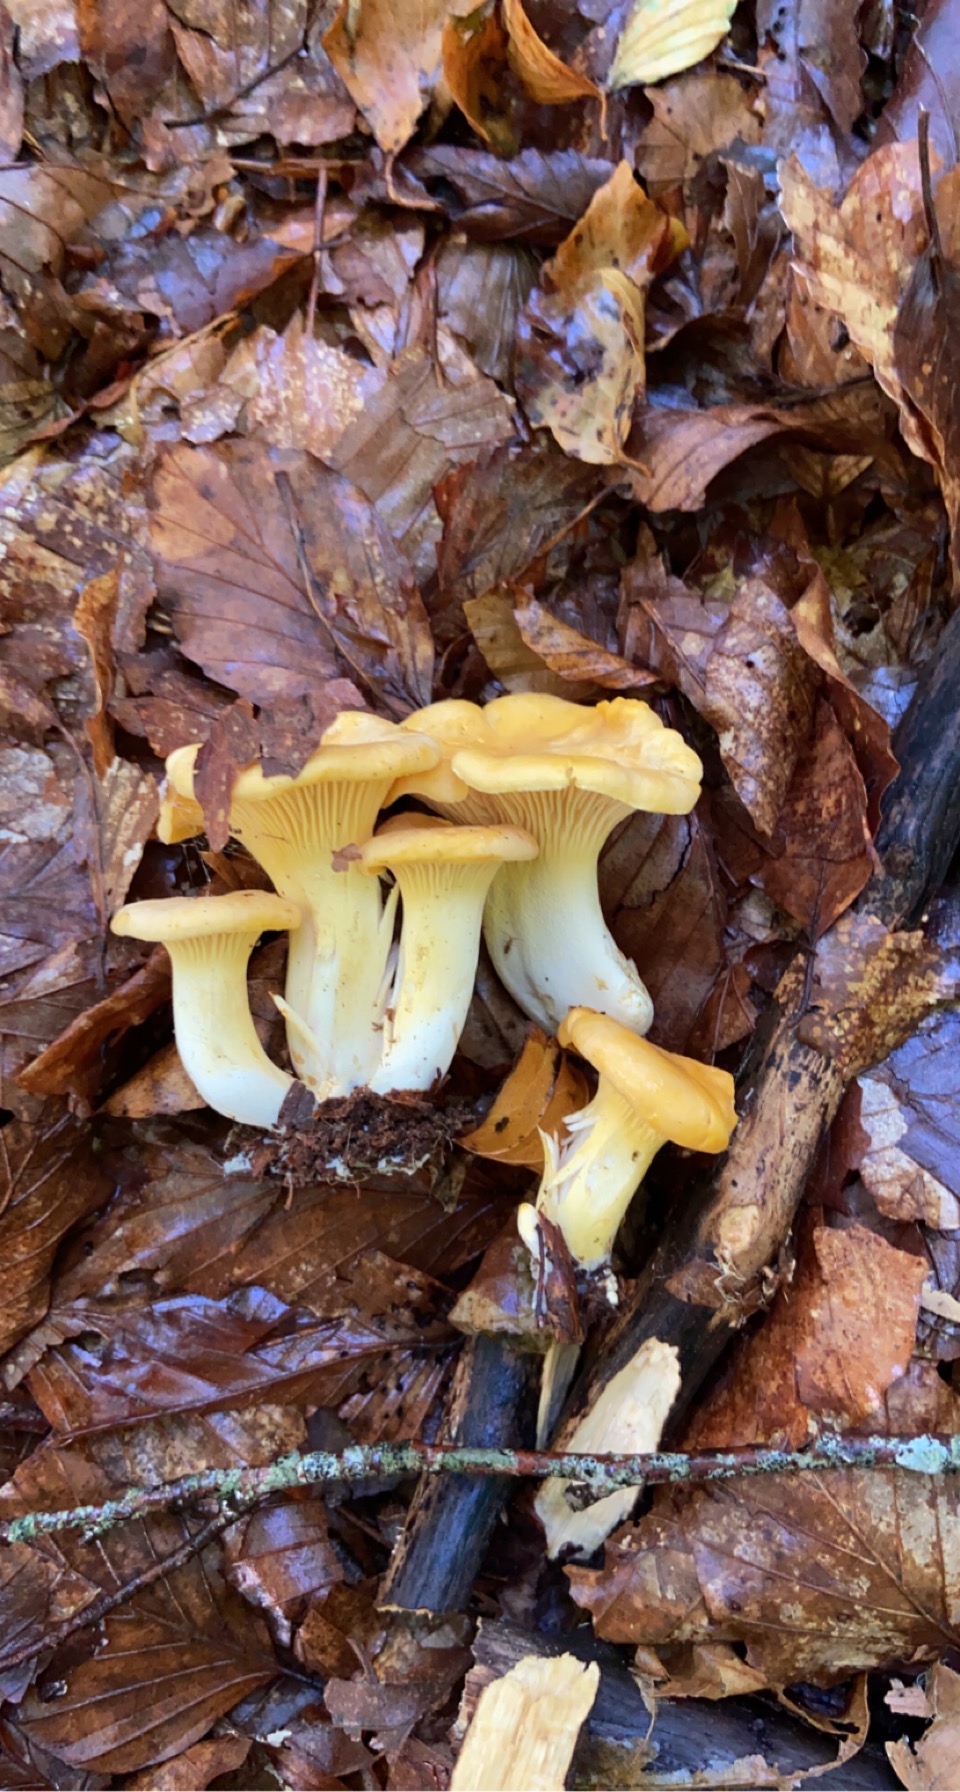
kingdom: Fungi
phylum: Basidiomycota
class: Agaricomycetes
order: Cantharellales
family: Hydnaceae
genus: Cantharellus
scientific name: Cantharellus cibarius
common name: almindelig kantarel
